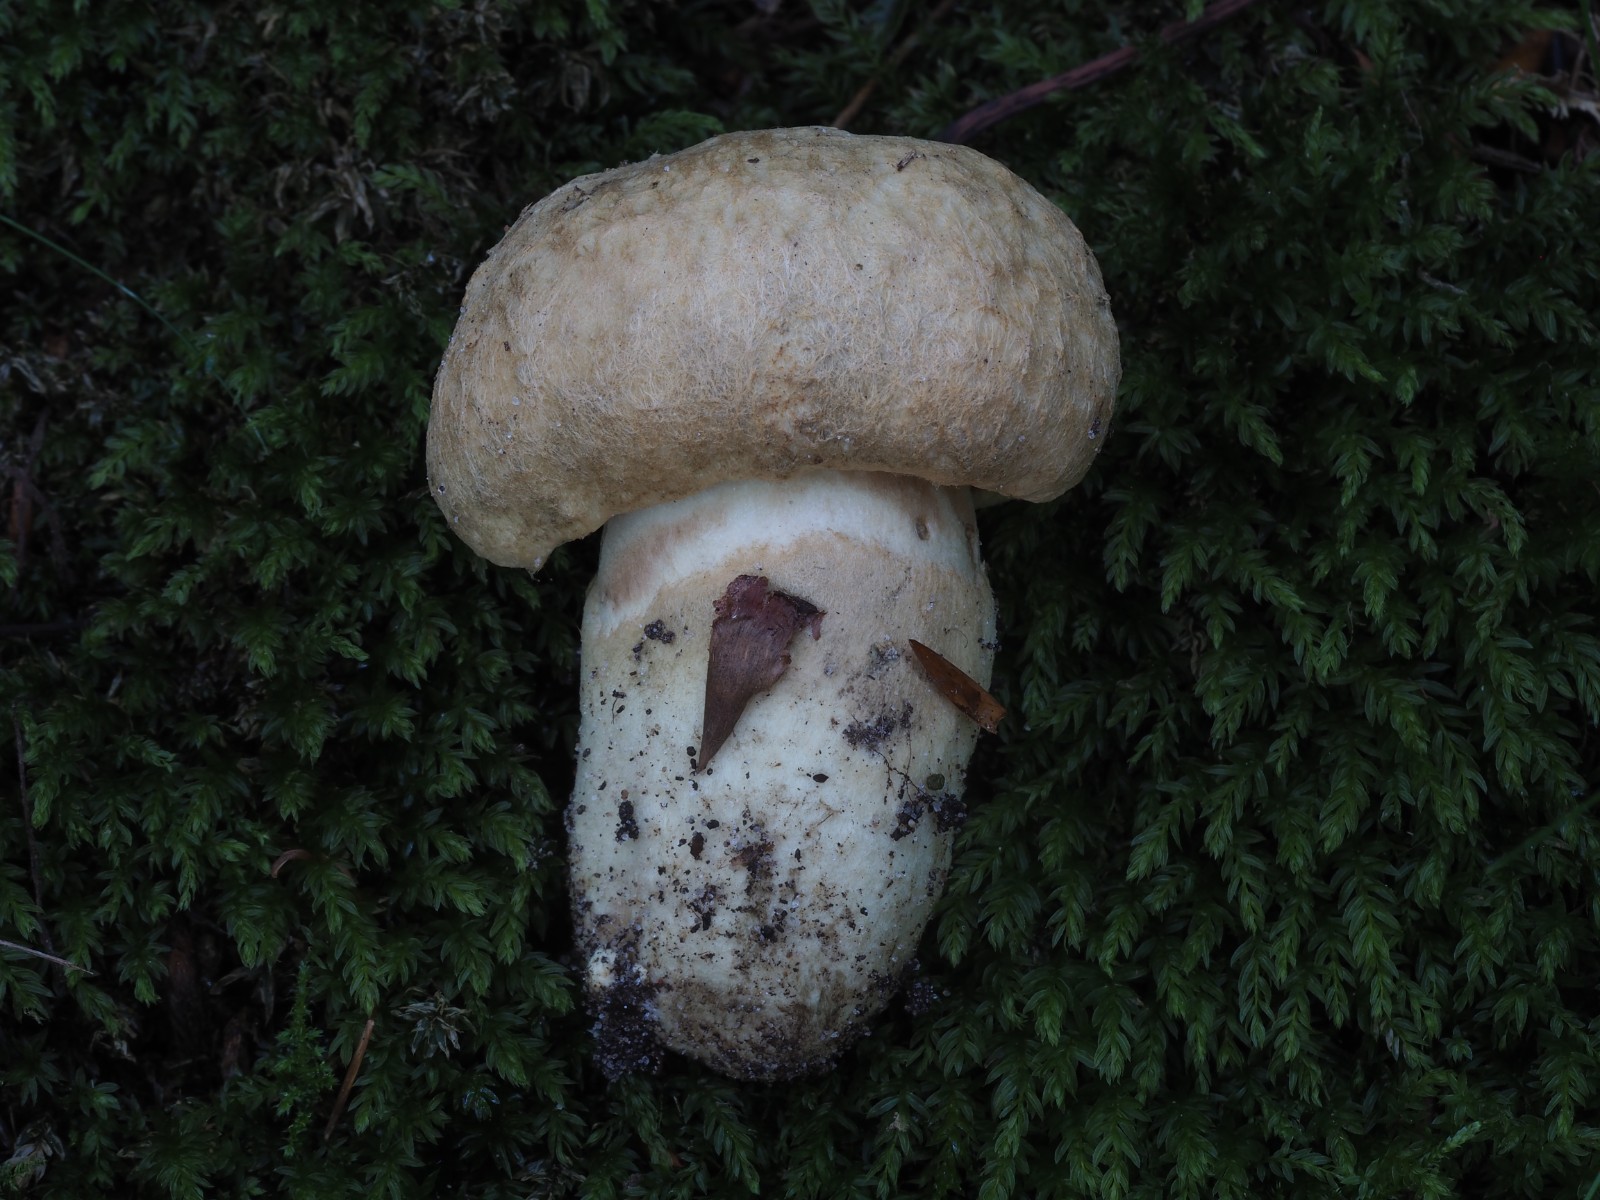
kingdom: Fungi
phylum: Basidiomycota
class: Agaricomycetes
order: Boletales
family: Gyroporaceae
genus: Gyroporus
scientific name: Gyroporus cyanescens
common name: blånende kammerrørhat
